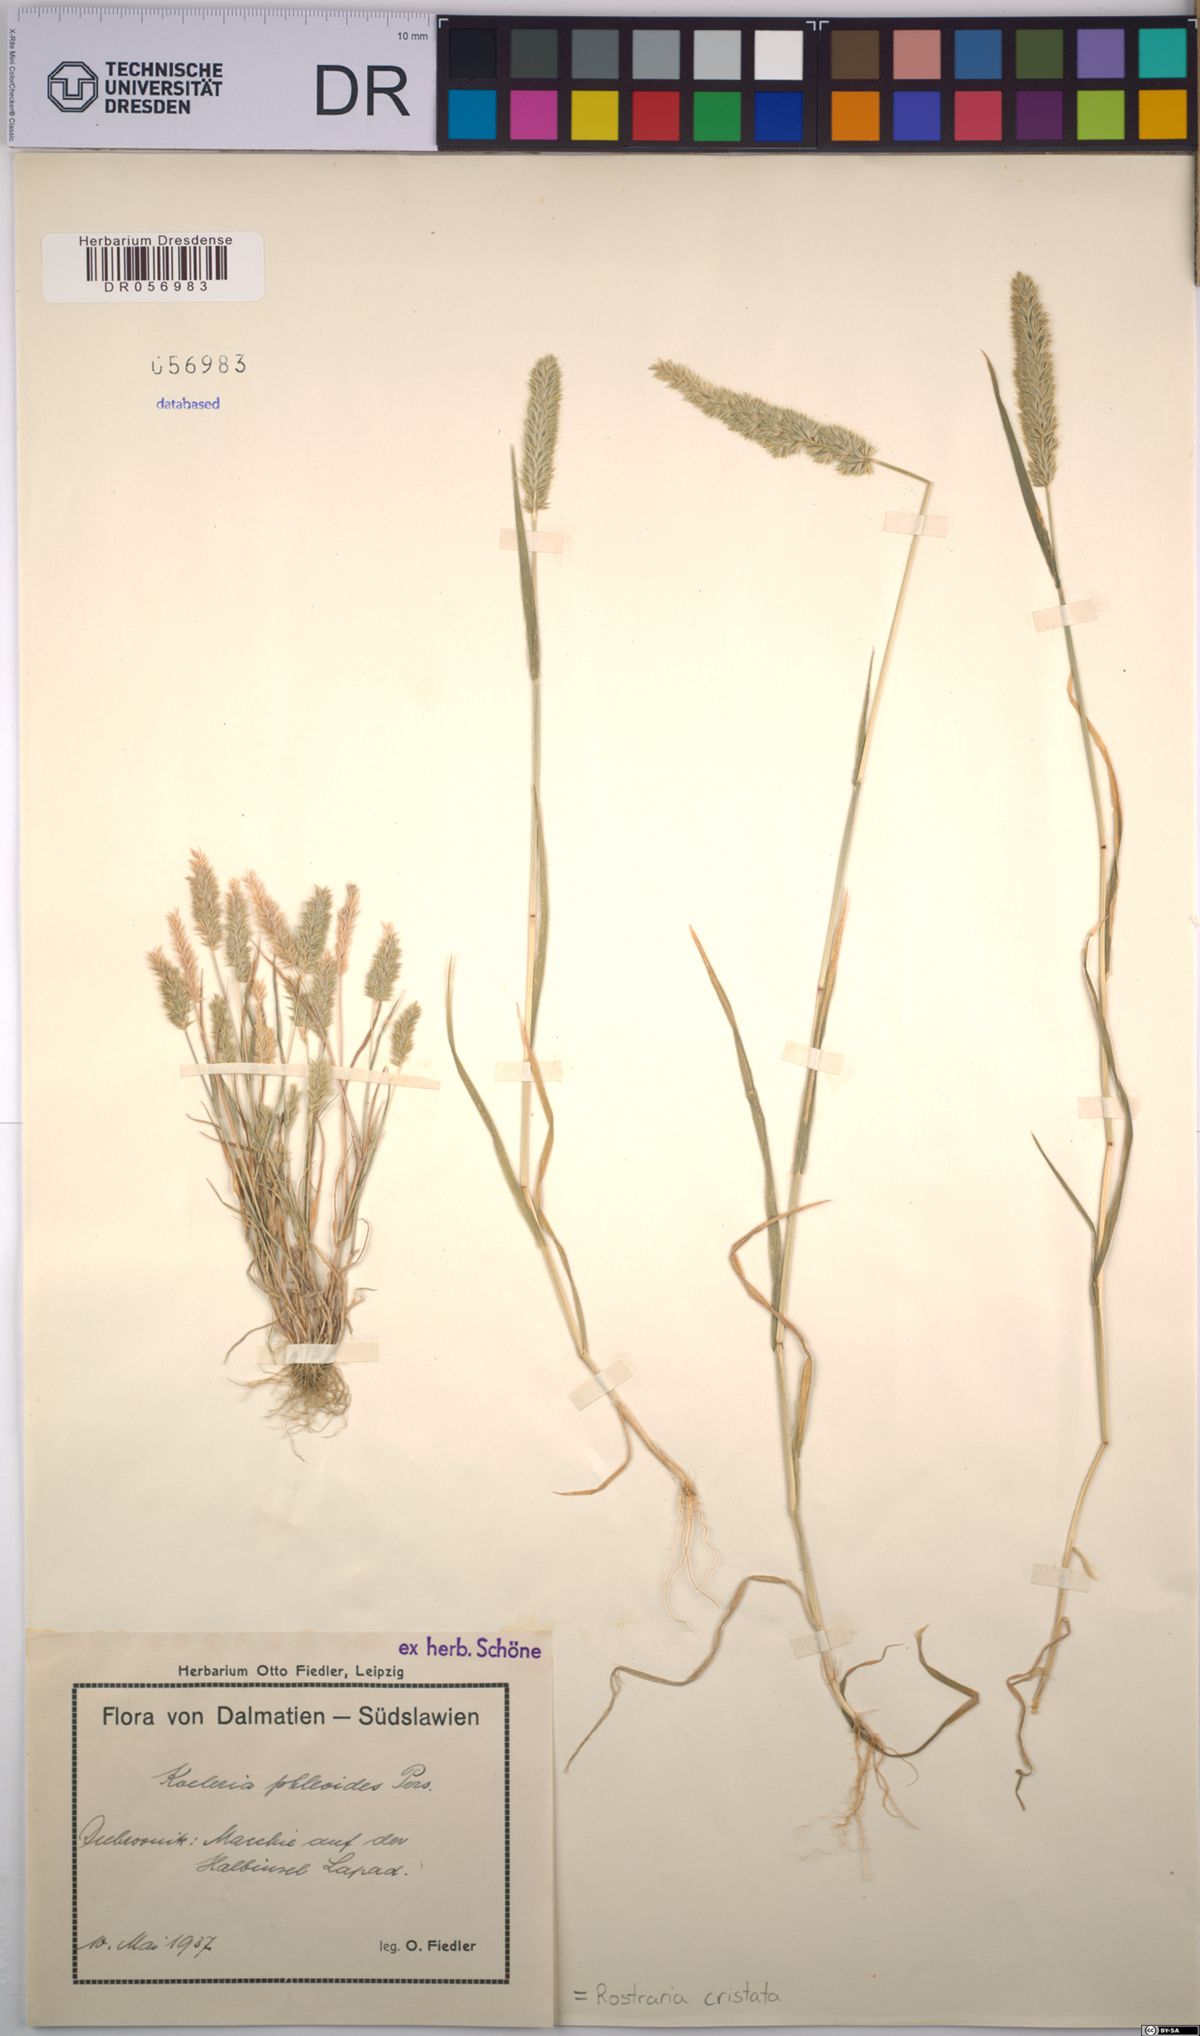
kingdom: Plantae
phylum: Tracheophyta
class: Liliopsida
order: Poales
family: Poaceae
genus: Rostraria
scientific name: Rostraria cristata
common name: Mediterranean hair-grass
